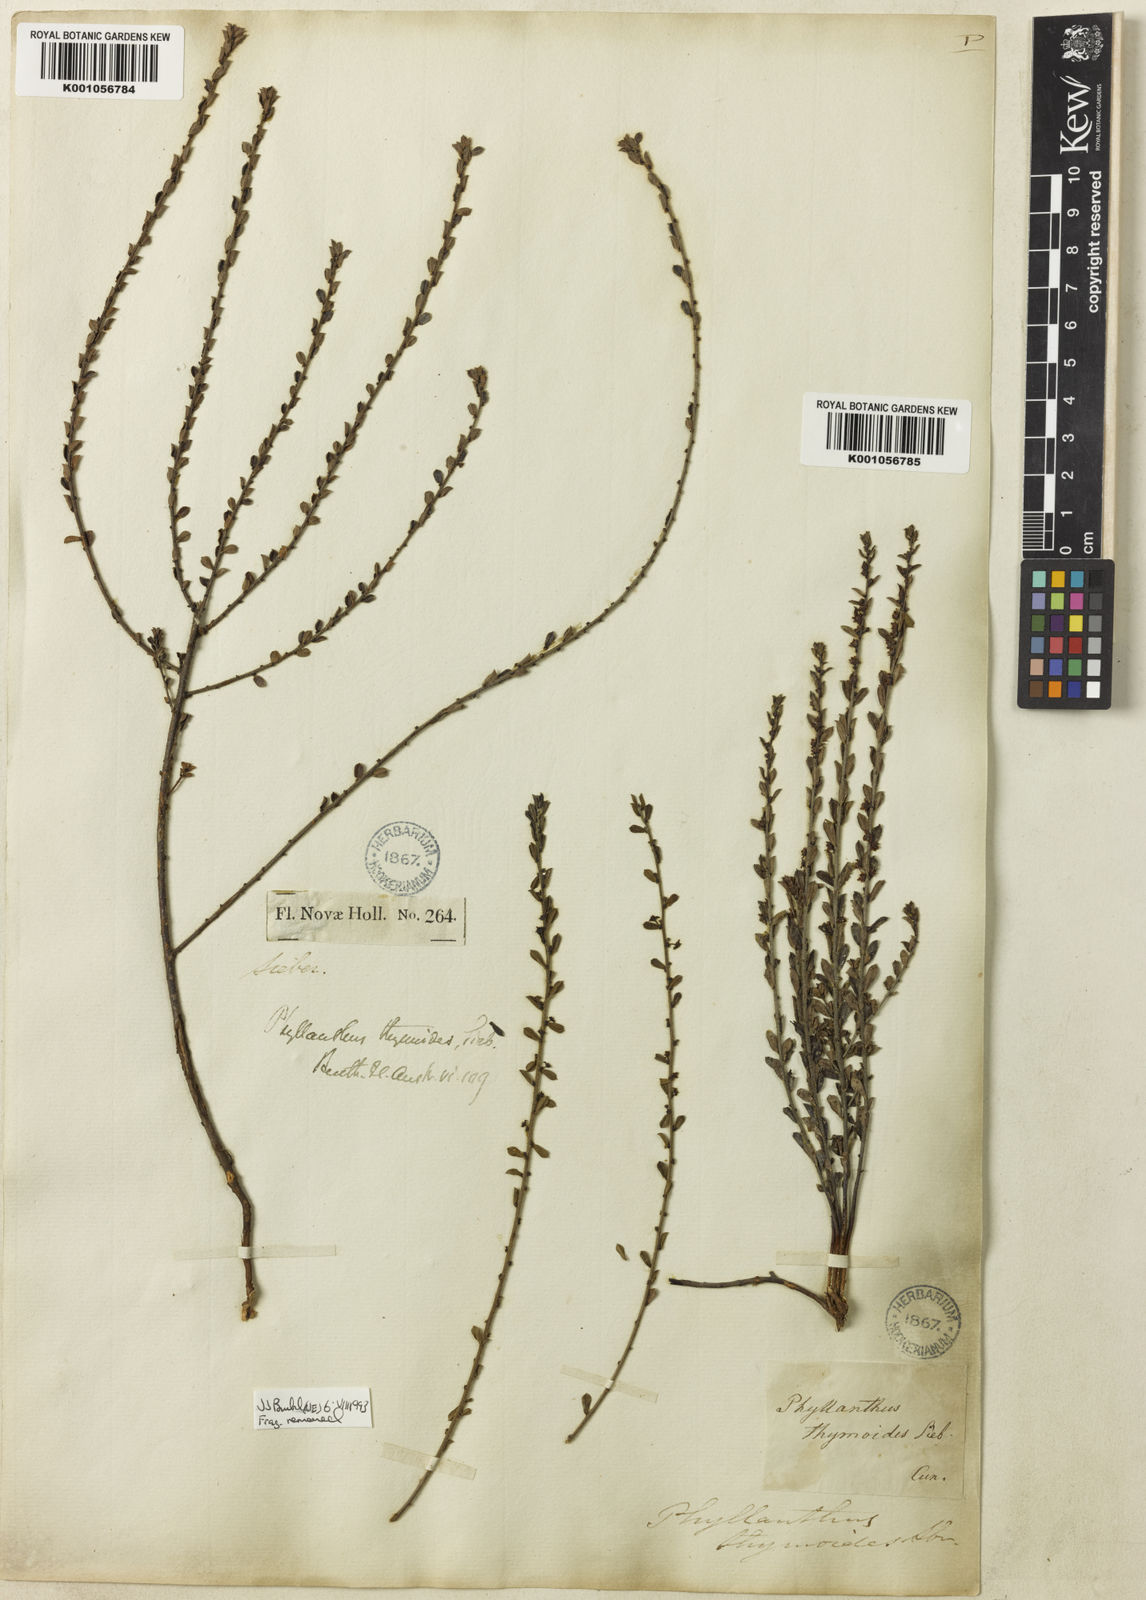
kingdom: Plantae
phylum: Tracheophyta
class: Magnoliopsida
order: Malpighiales
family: Phyllanthaceae
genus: Phyllanthus
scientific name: Phyllanthus
